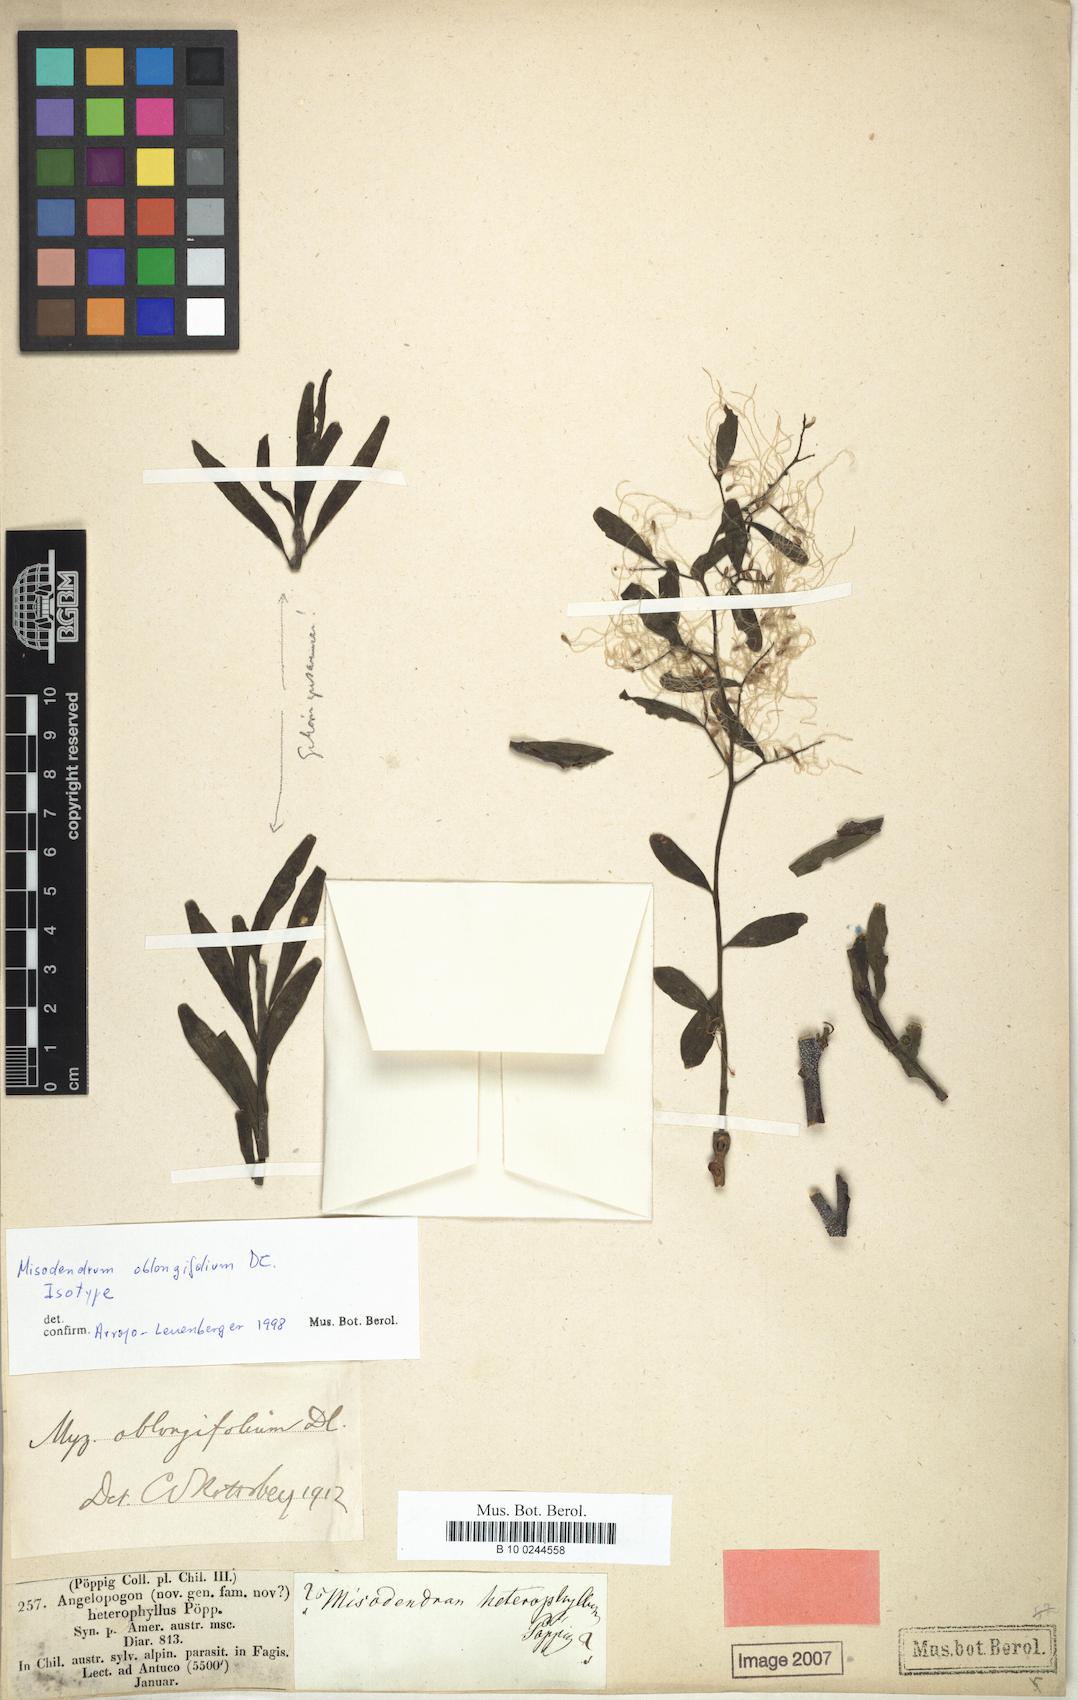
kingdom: Plantae
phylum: Tracheophyta
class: Magnoliopsida
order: Santalales
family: Misodendraceae
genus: Misodendrum
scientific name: Misodendrum oblongifolium
